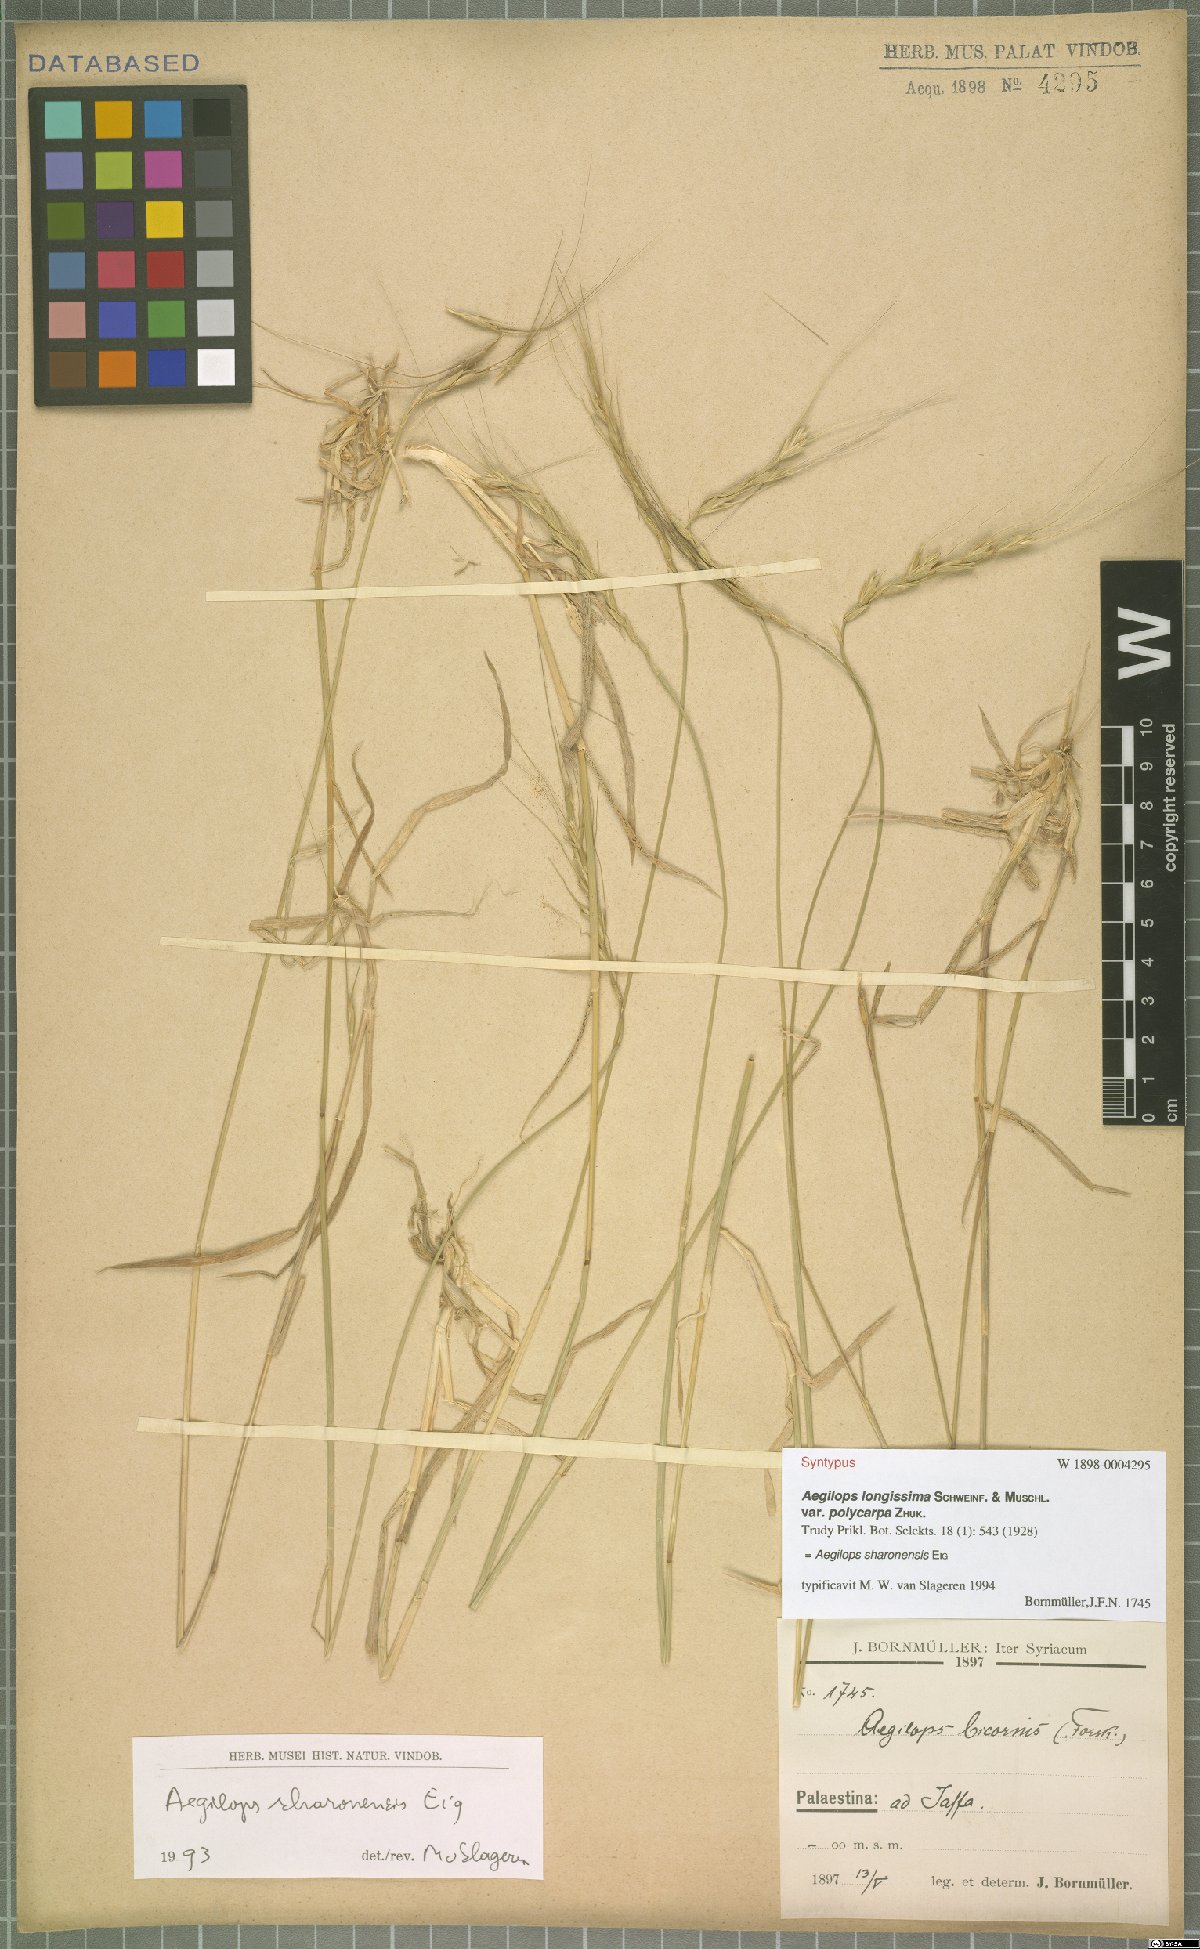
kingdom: Plantae
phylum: Tracheophyta
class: Liliopsida
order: Poales
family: Poaceae
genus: Aegilops
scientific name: Aegilops sharonensis
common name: Sharon goatgrass
